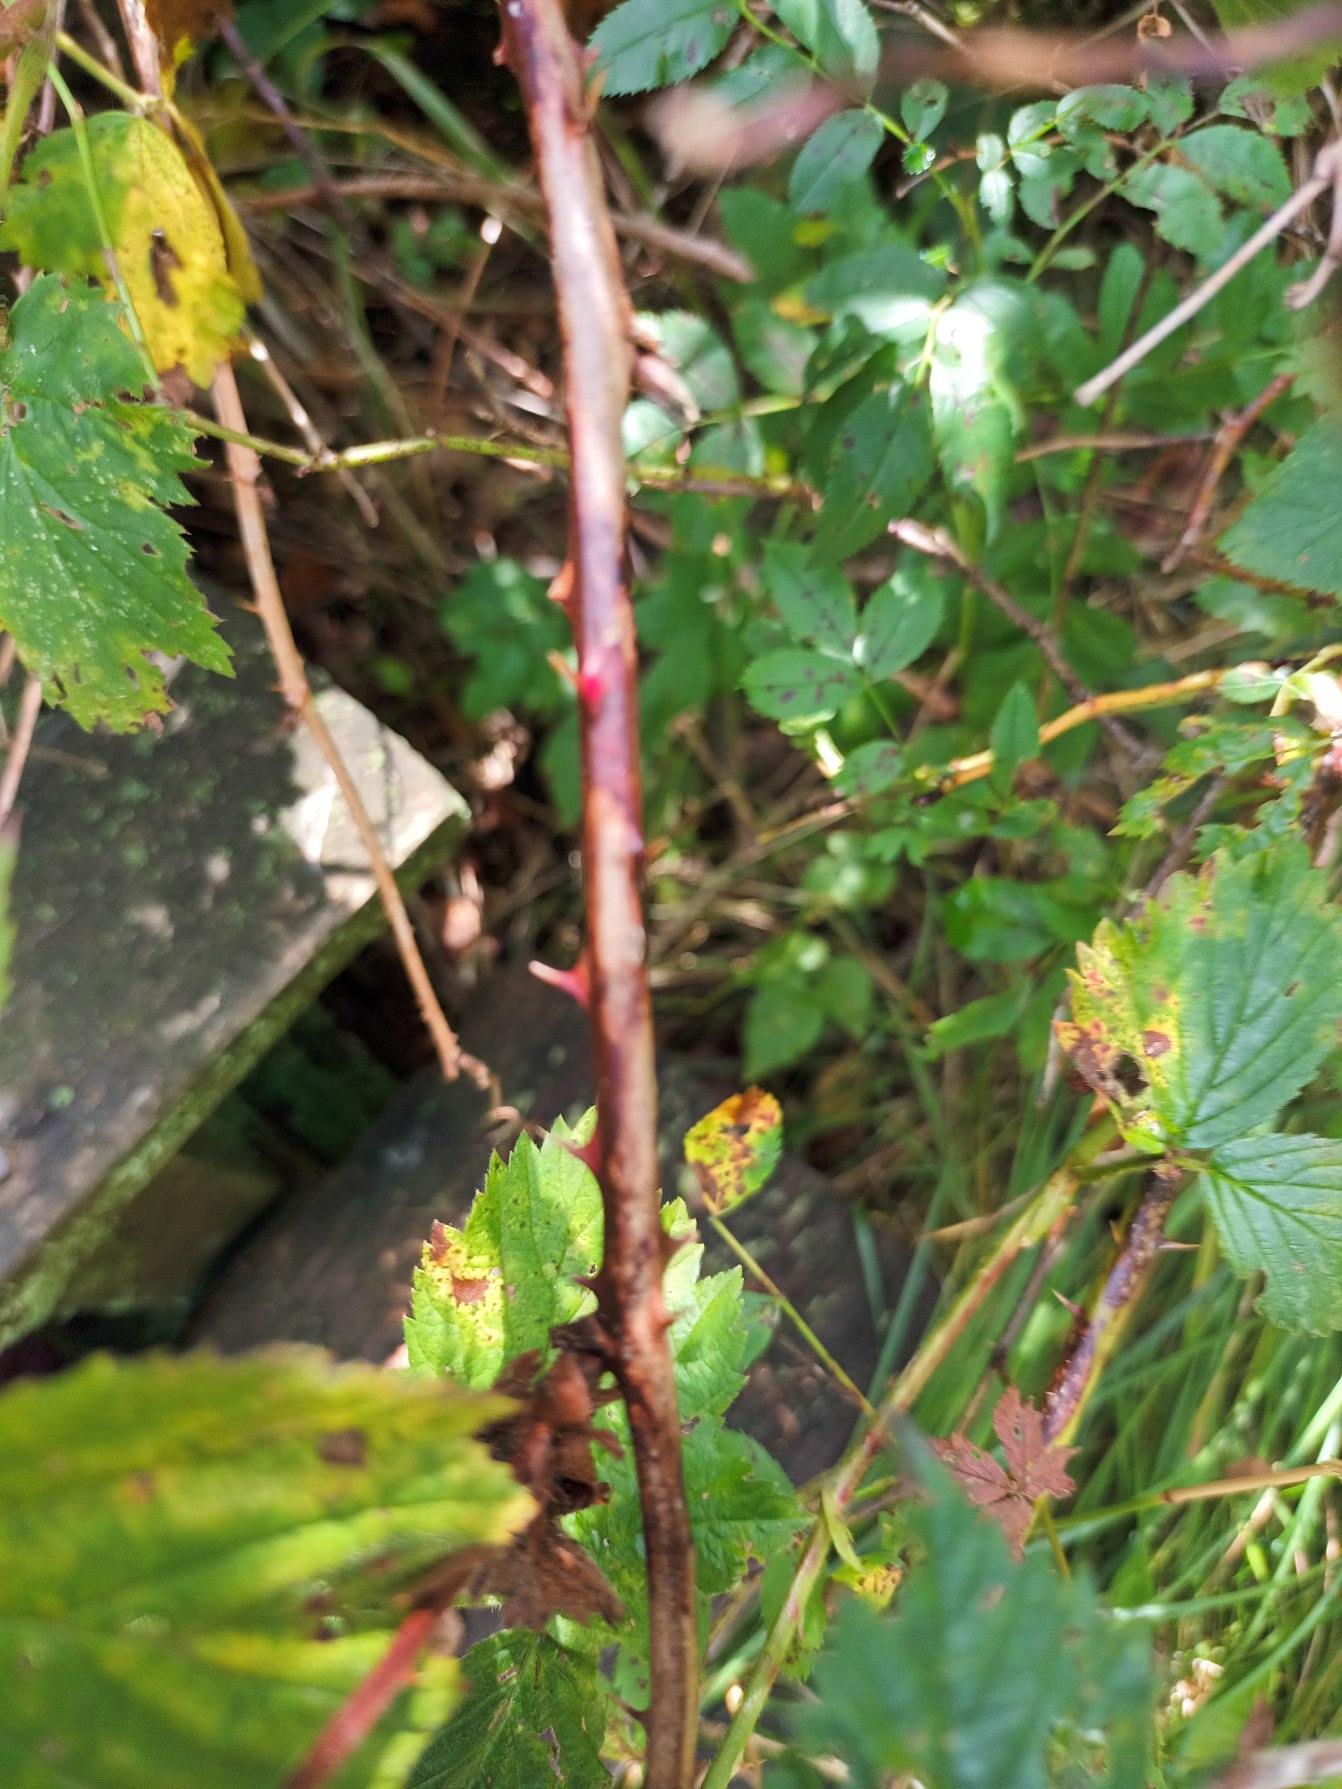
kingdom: Plantae
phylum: Tracheophyta
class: Magnoliopsida
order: Rosales
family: Rosaceae
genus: Rubus
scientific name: Rubus plicatus
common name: Almindelig brombær
